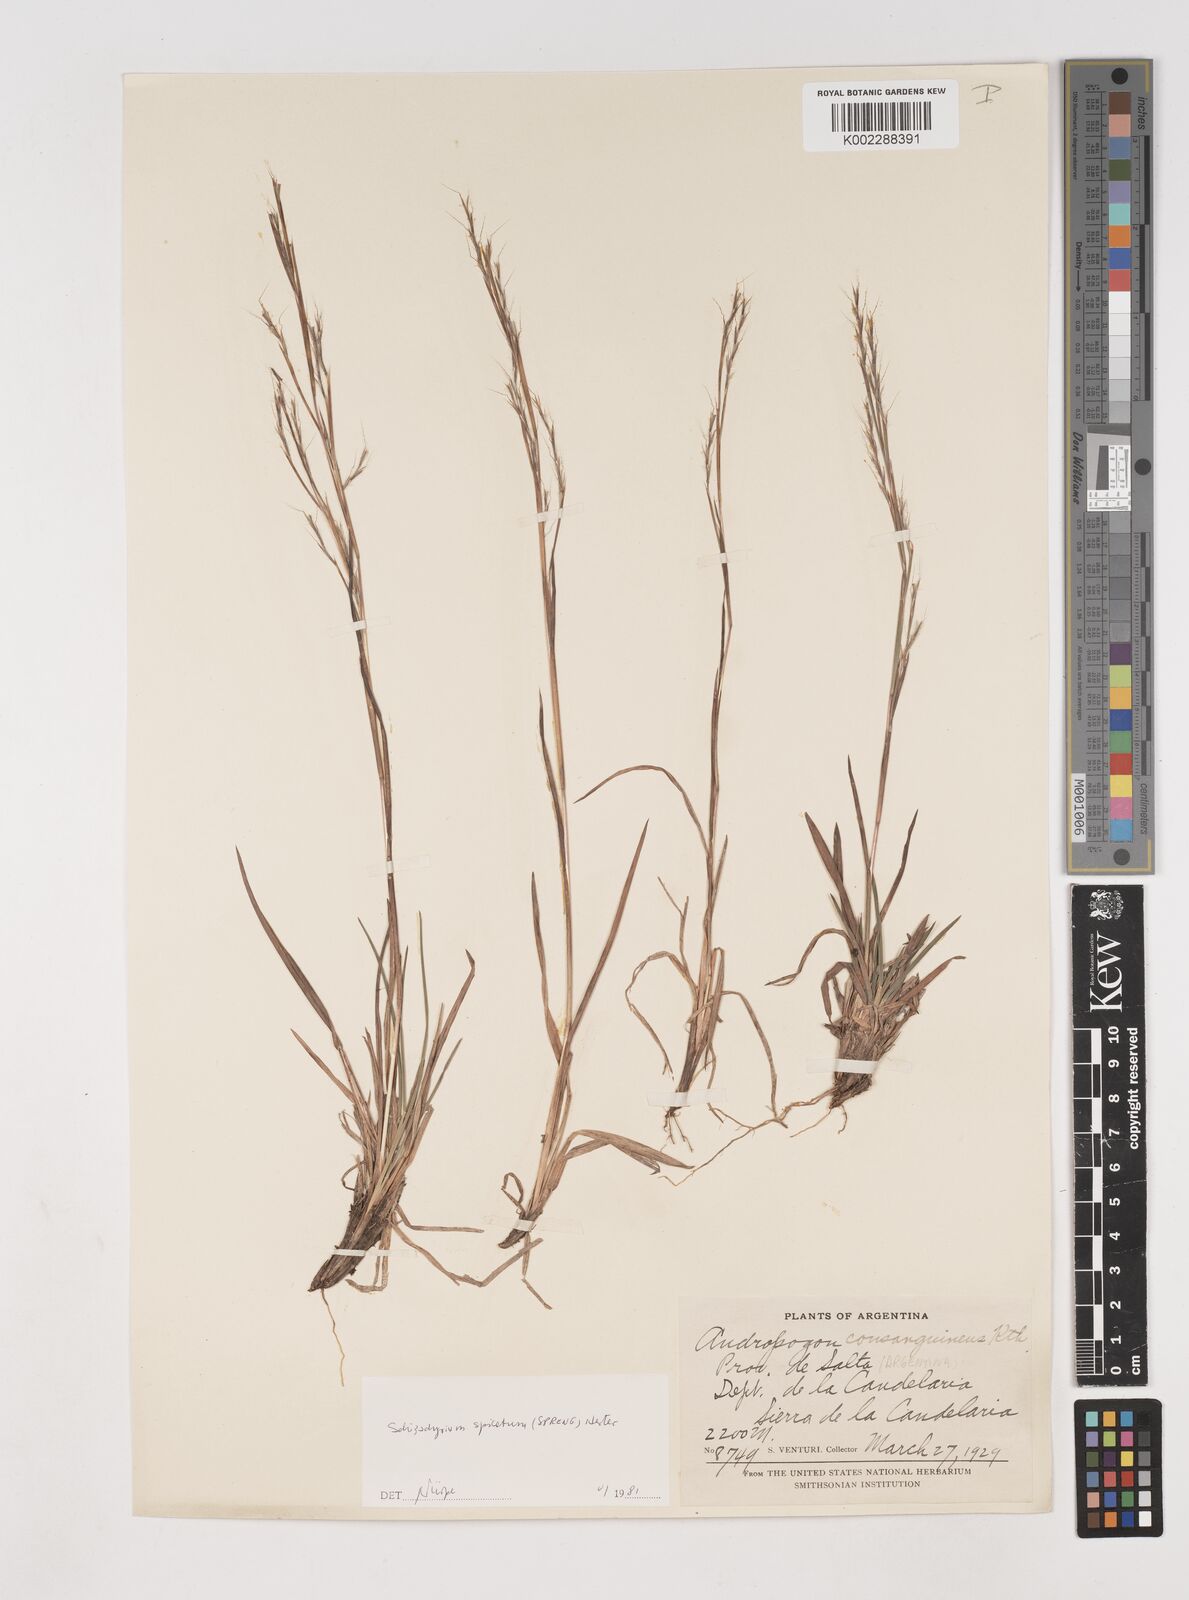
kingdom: Plantae
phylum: Tracheophyta
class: Liliopsida
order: Poales
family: Poaceae
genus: Schizachyrium
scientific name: Schizachyrium spicatum
